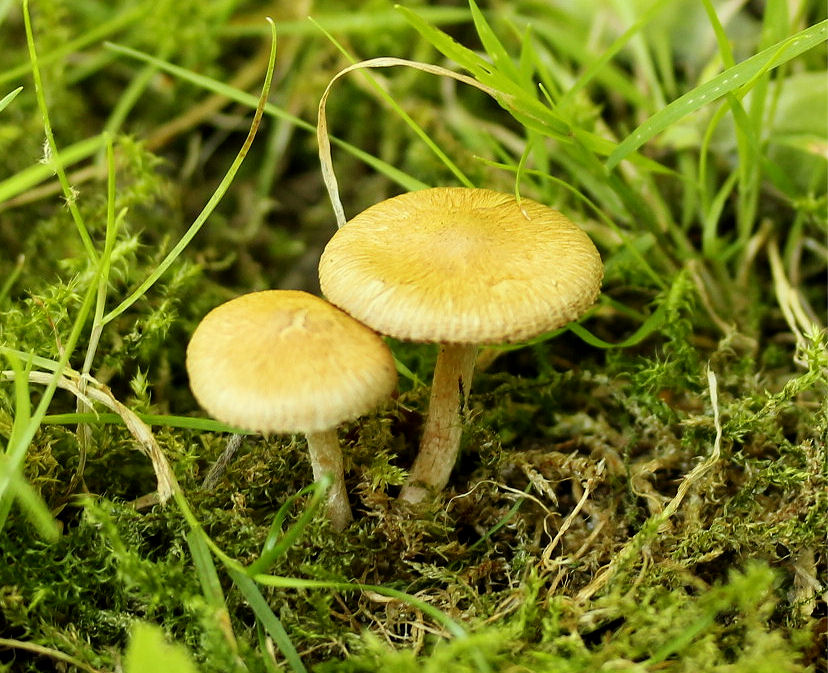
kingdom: Fungi
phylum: Basidiomycota
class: Agaricomycetes
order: Agaricales
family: Inocybaceae
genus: Inocybe
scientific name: Inocybe semifulva
